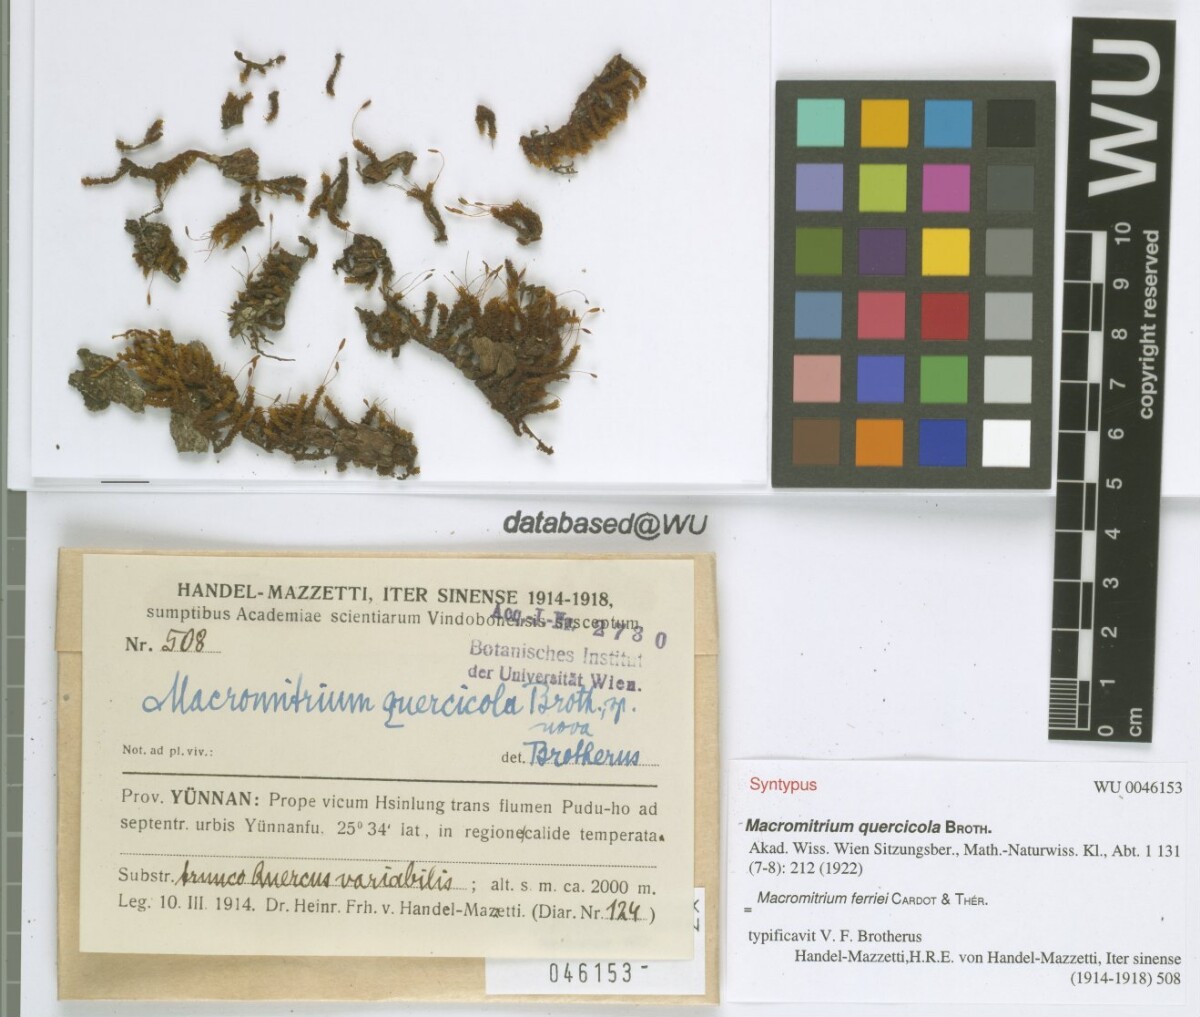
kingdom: Plantae
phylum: Bryophyta
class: Bryopsida
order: Orthotrichales
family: Orthotrichaceae
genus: Macromitrium
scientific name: Macromitrium ferriei
